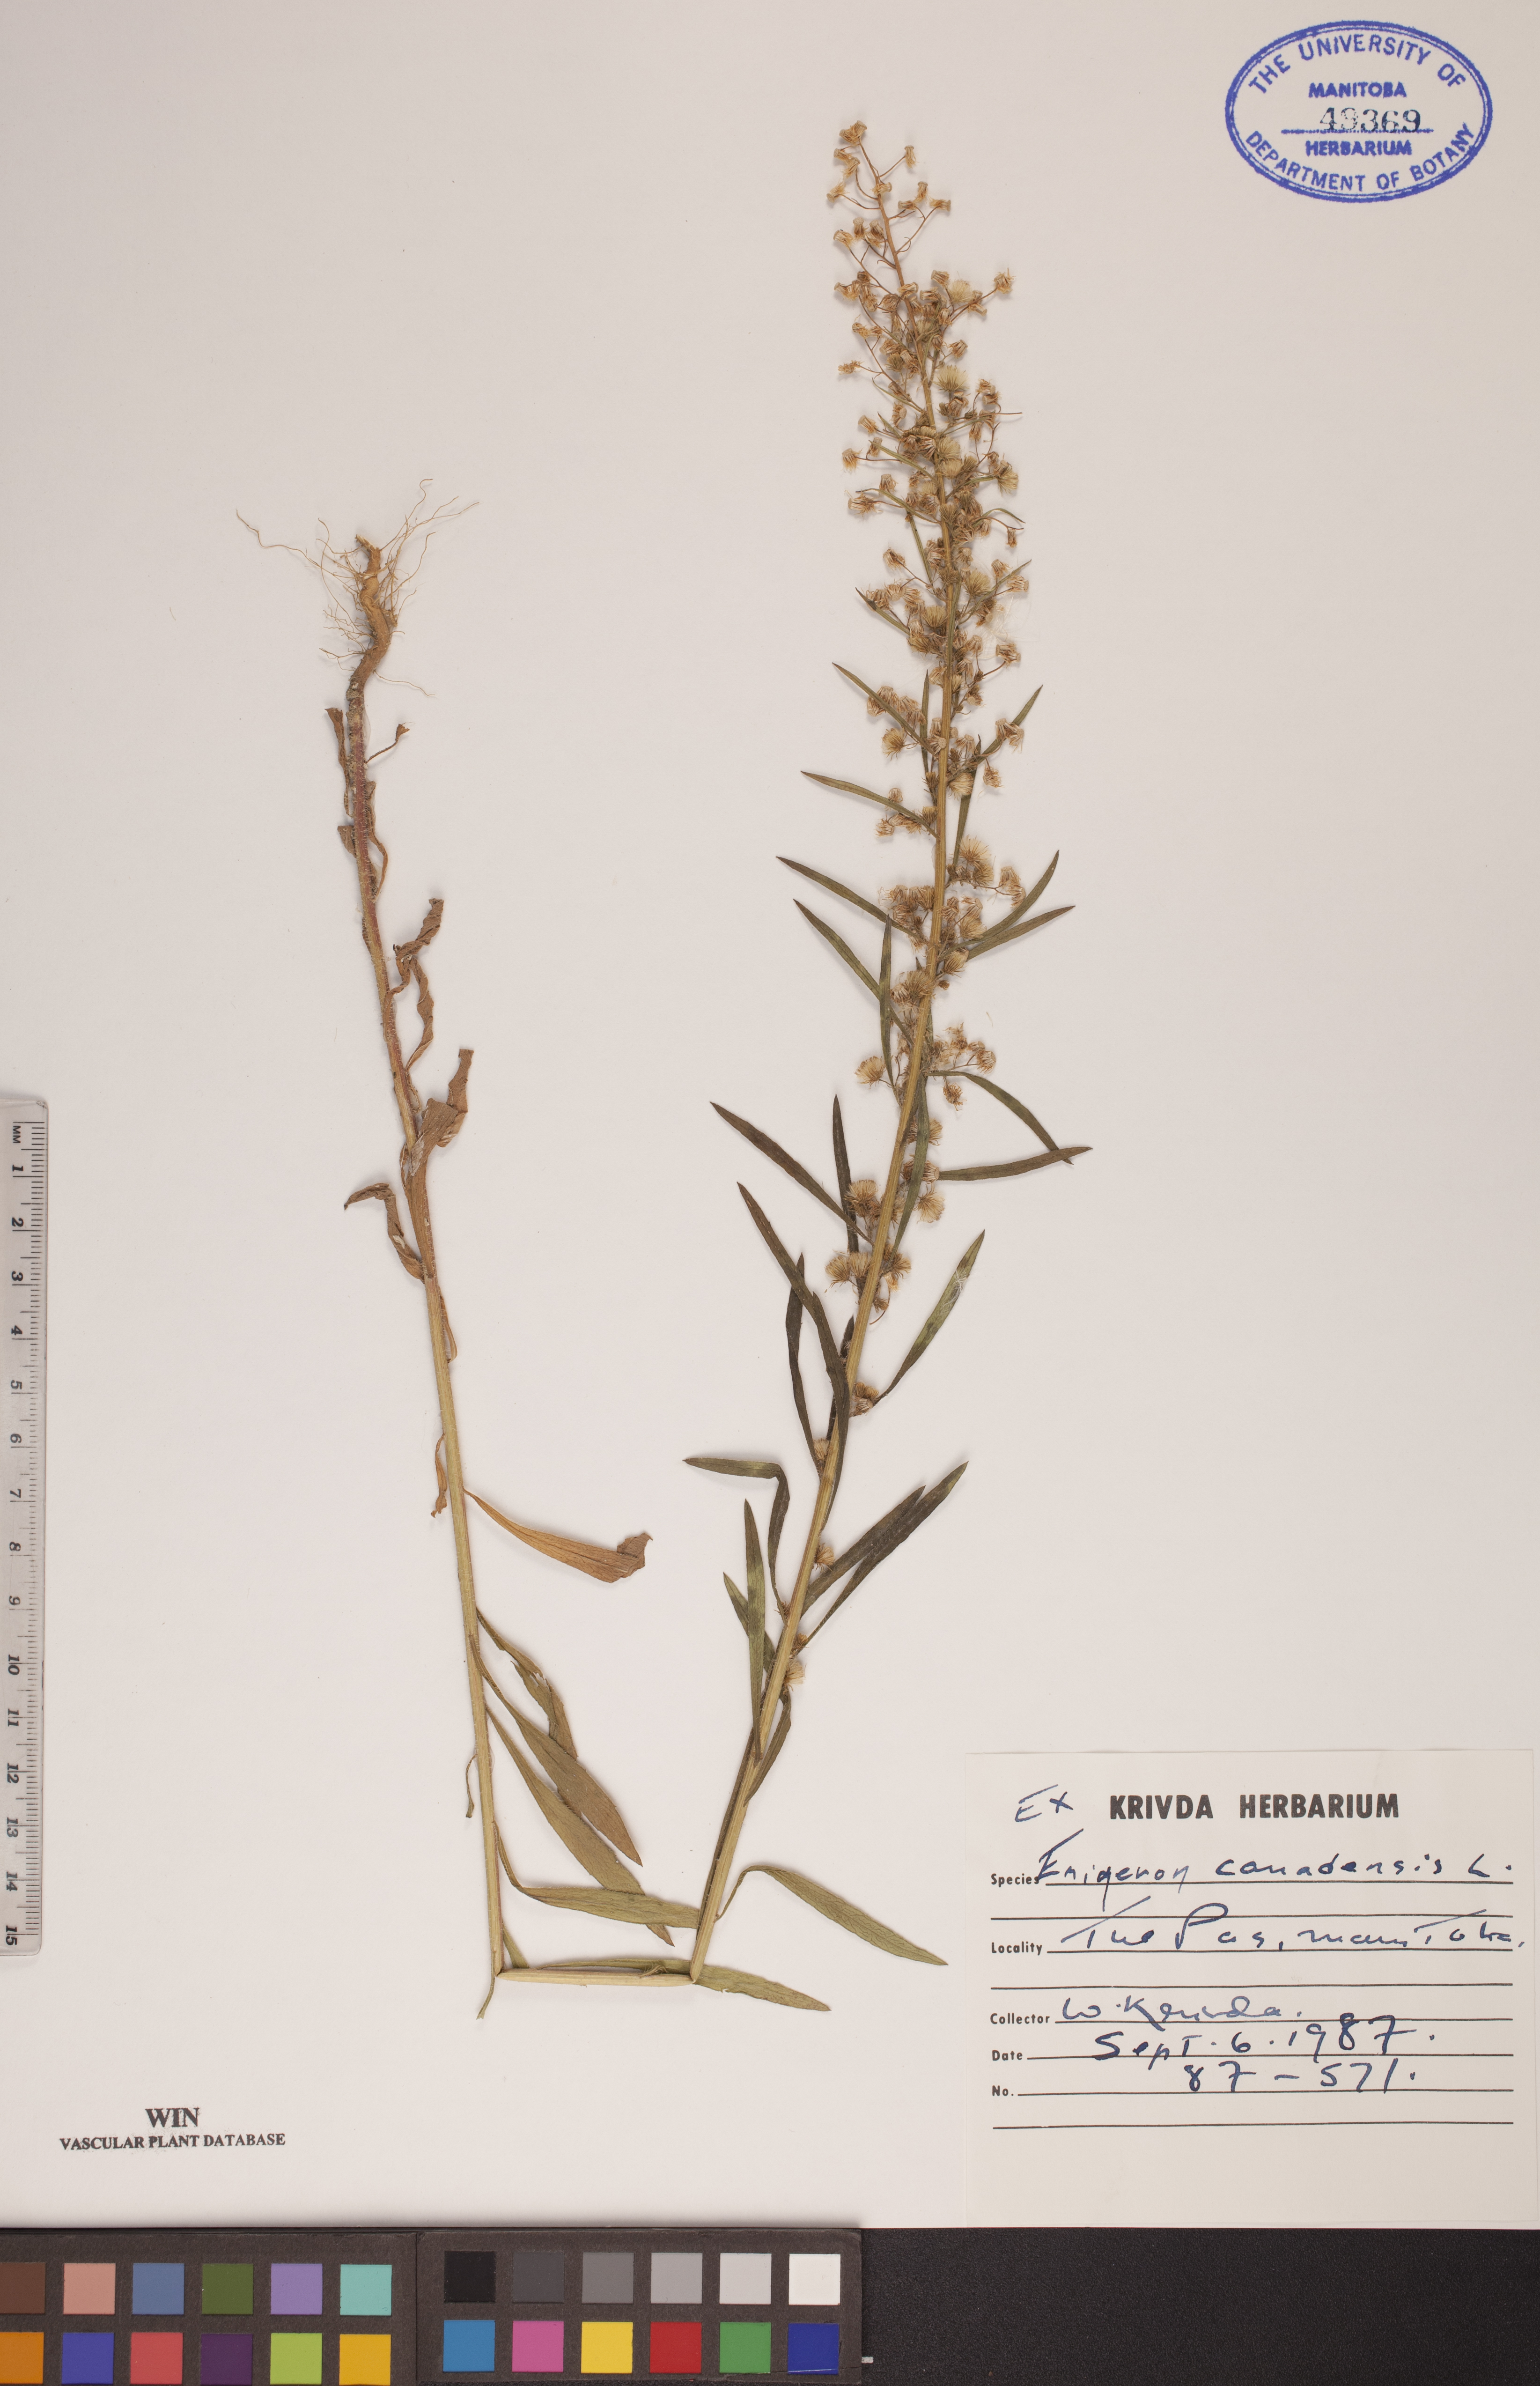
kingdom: Plantae
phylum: Tracheophyta
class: Magnoliopsida
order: Asterales
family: Asteraceae
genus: Erigeron
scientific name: Erigeron canadensis
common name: Canadian fleabane
